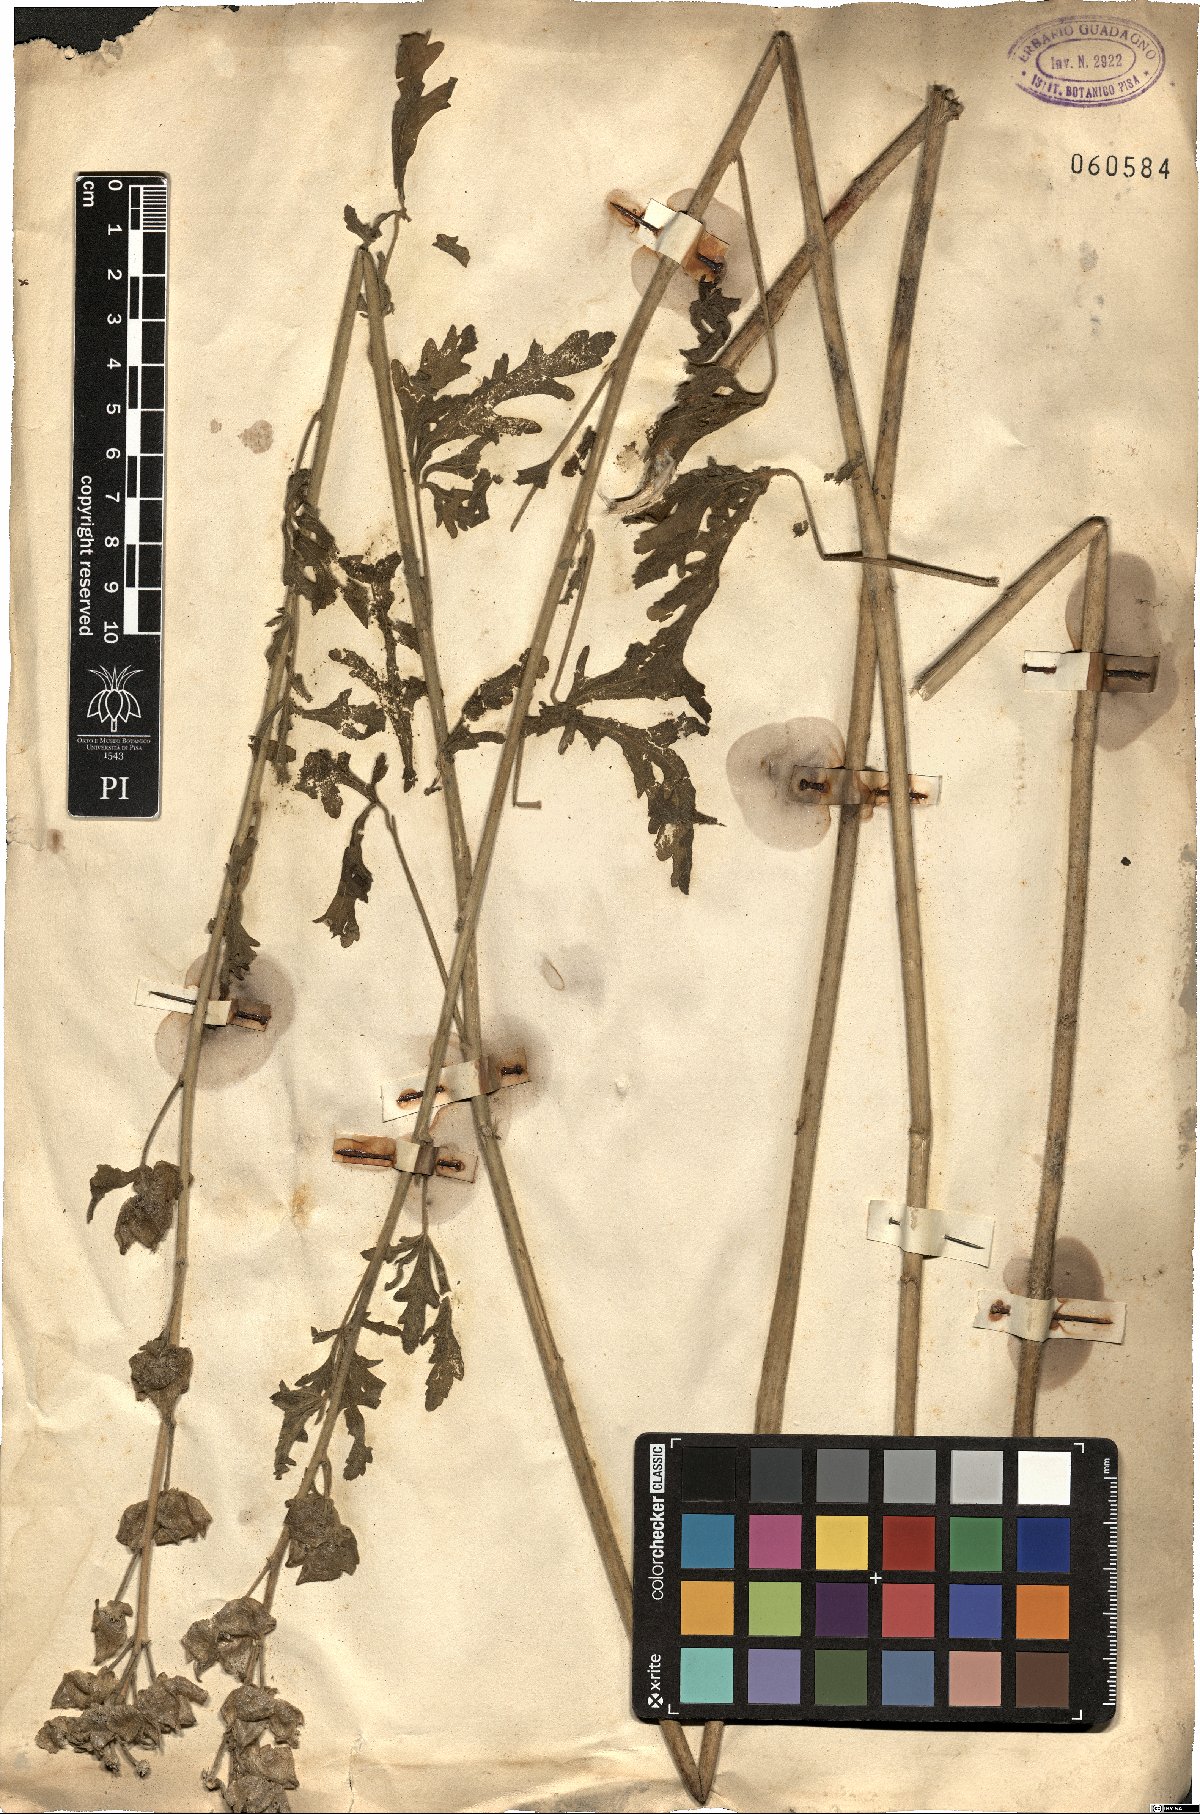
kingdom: Plantae
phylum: Tracheophyta
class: Magnoliopsida
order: Malvales
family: Malvaceae
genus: Malva
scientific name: Malva
